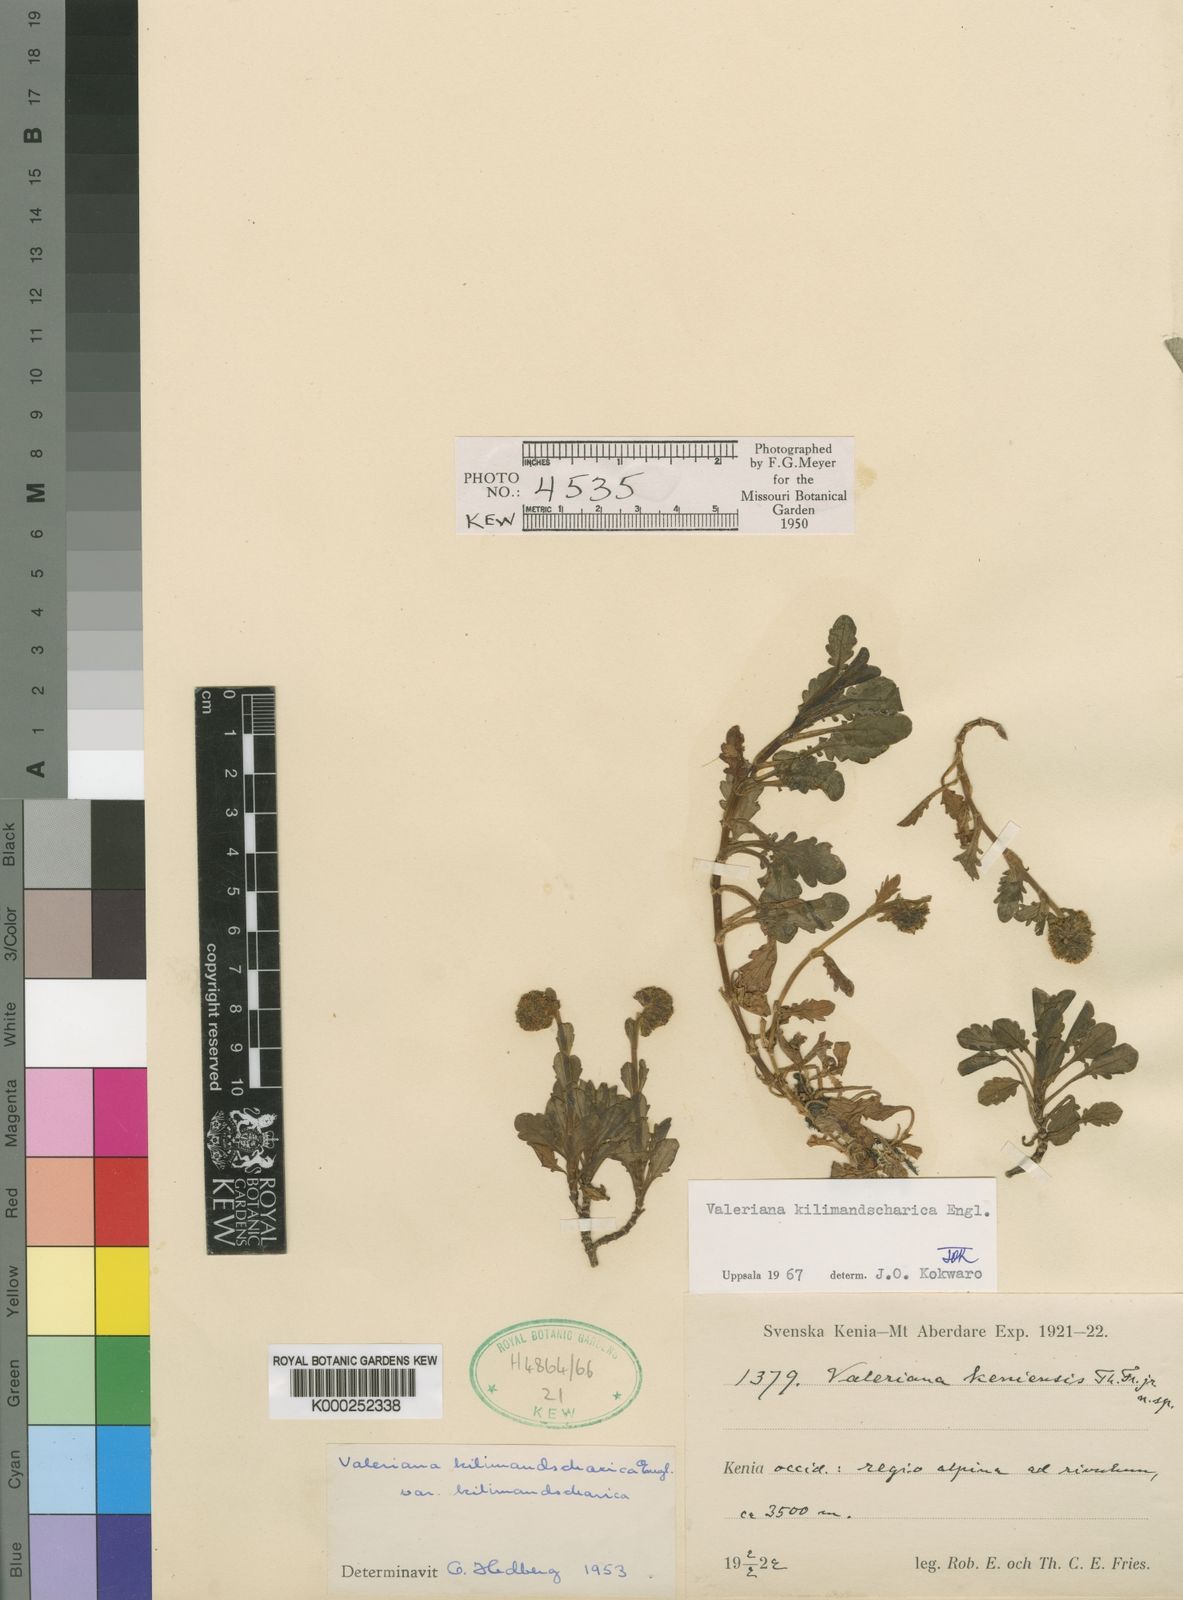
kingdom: Plantae
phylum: Tracheophyta
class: Magnoliopsida
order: Dipsacales
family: Caprifoliaceae
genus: Valeriana
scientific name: Valeriana kilimandscharica
